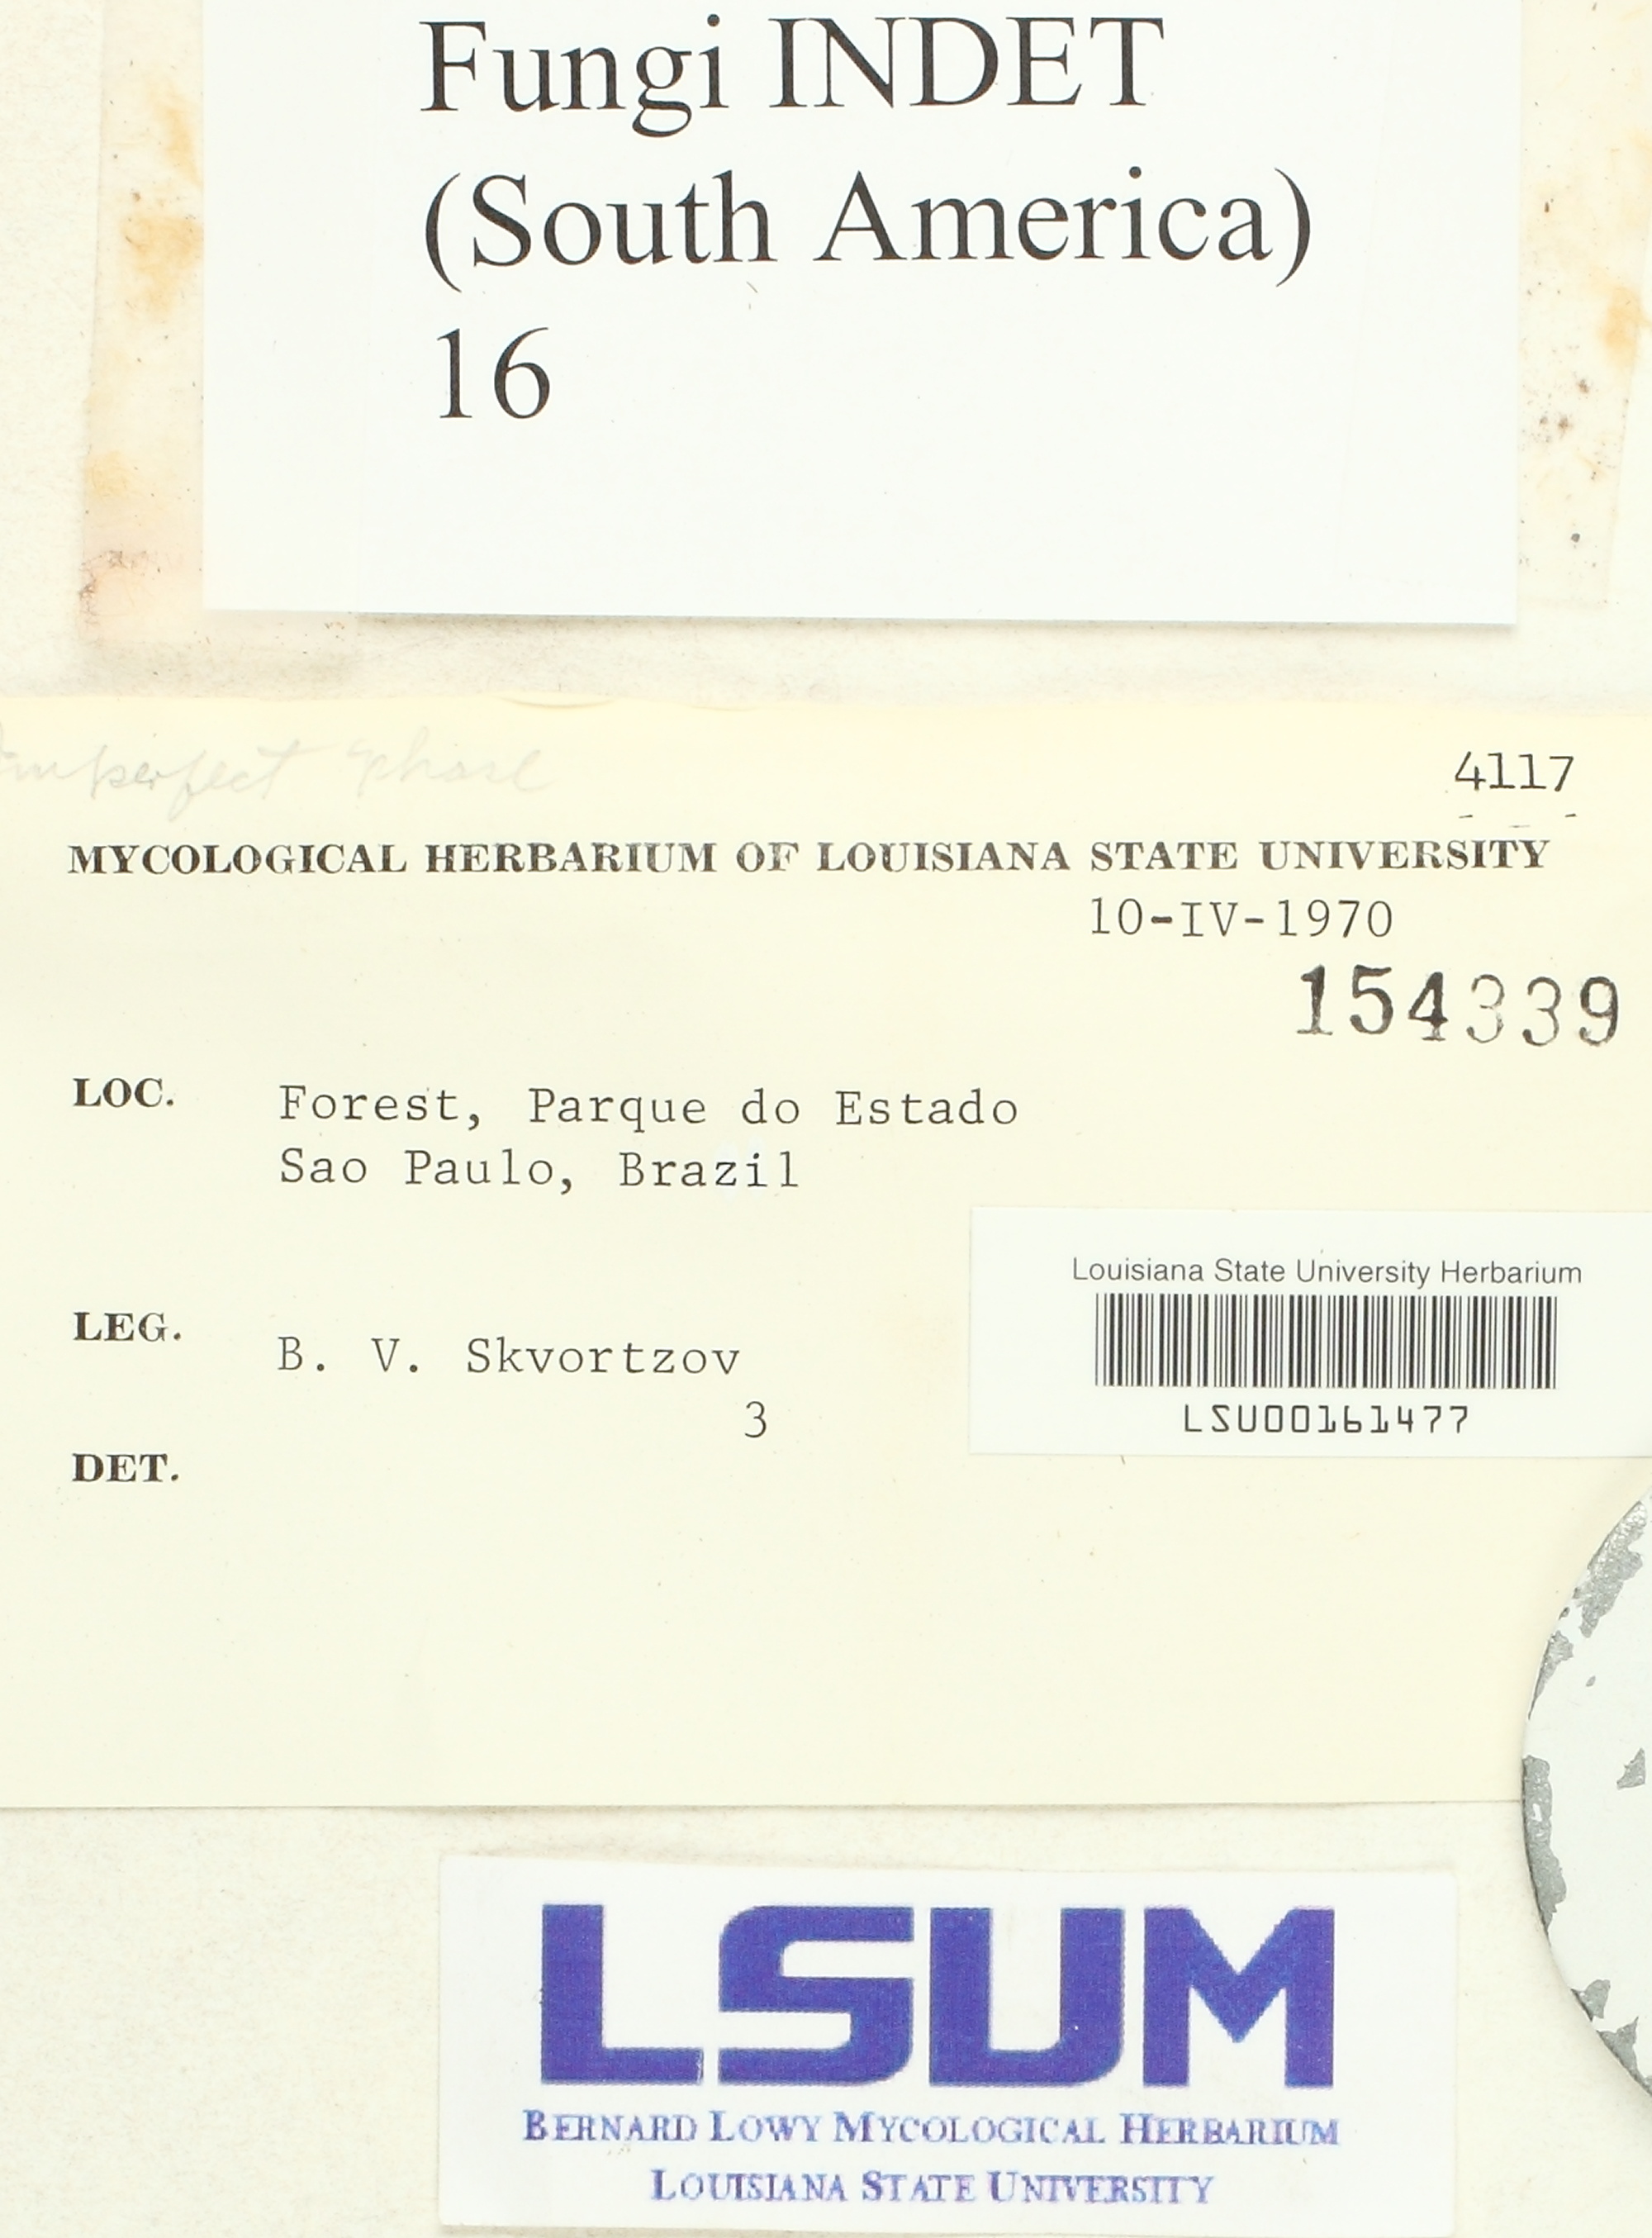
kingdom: Fungi
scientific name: Fungi
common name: Fungi
